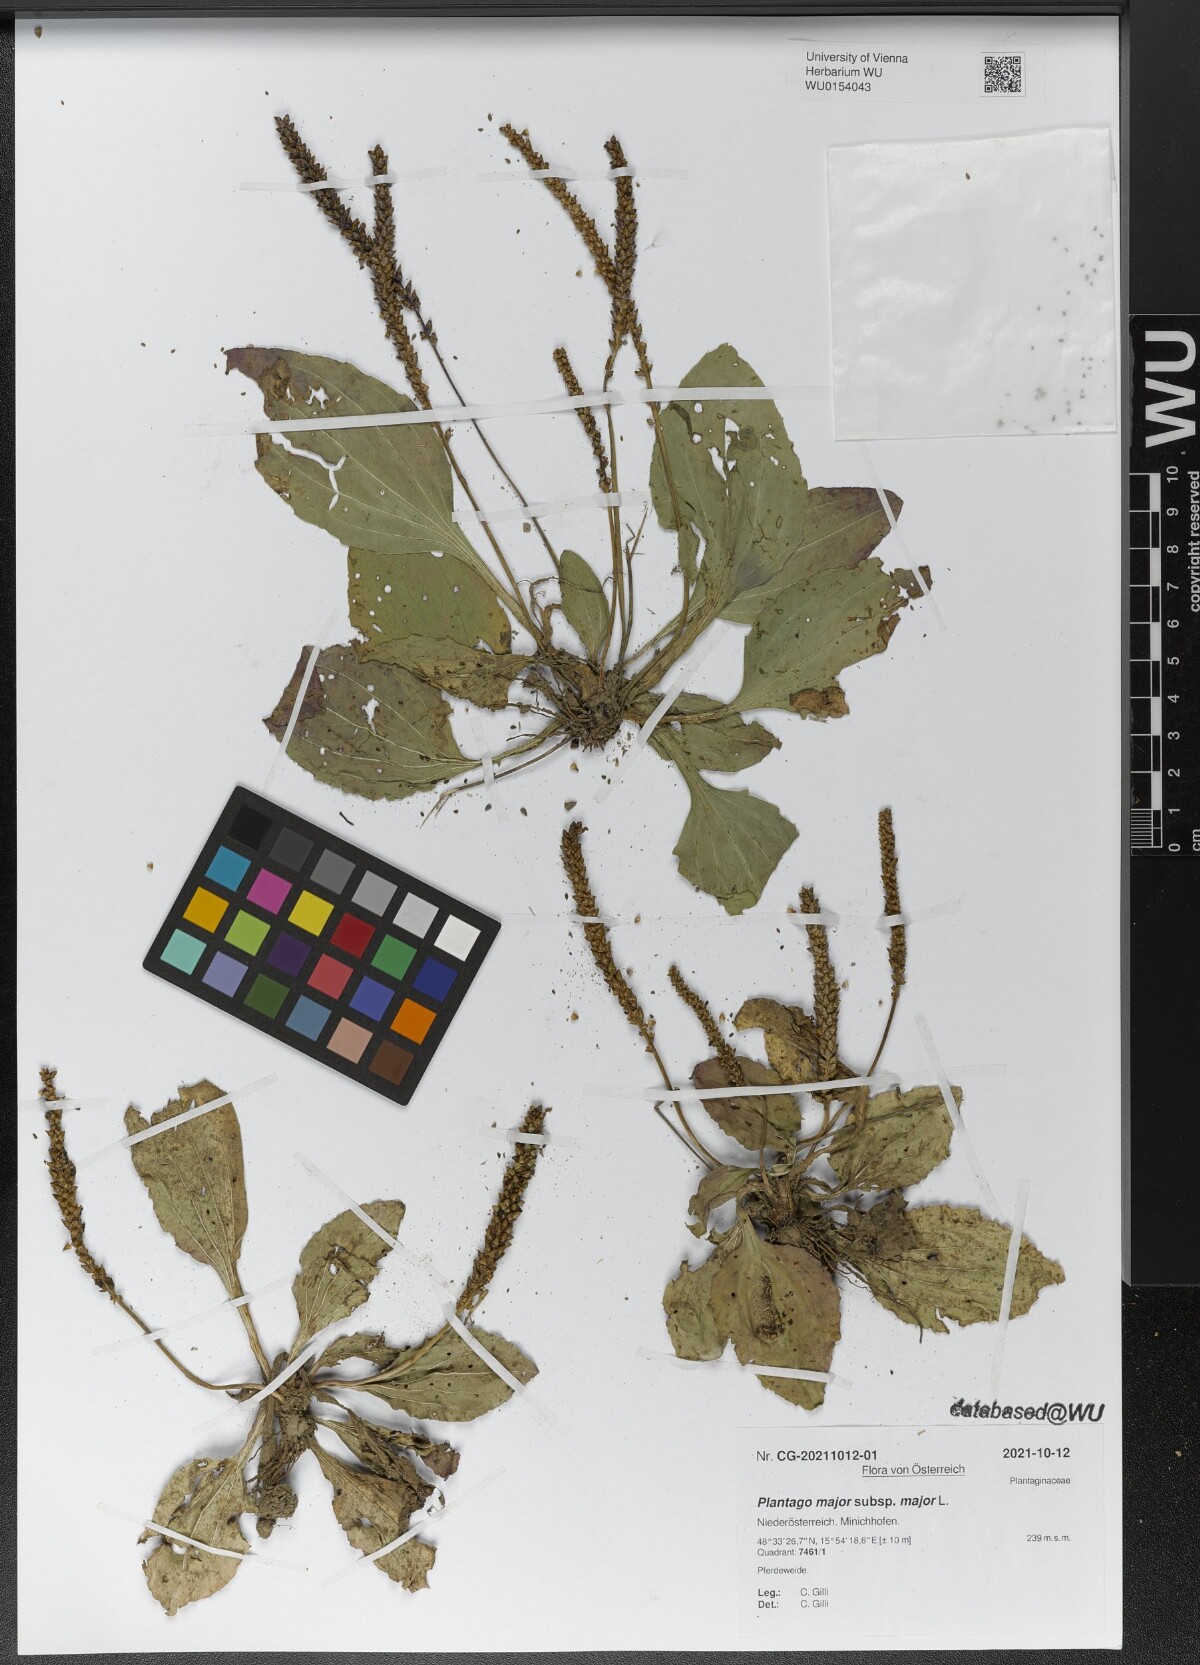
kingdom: Plantae
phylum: Tracheophyta
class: Magnoliopsida
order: Lamiales
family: Plantaginaceae
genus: Plantago
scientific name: Plantago major
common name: Common plantain
